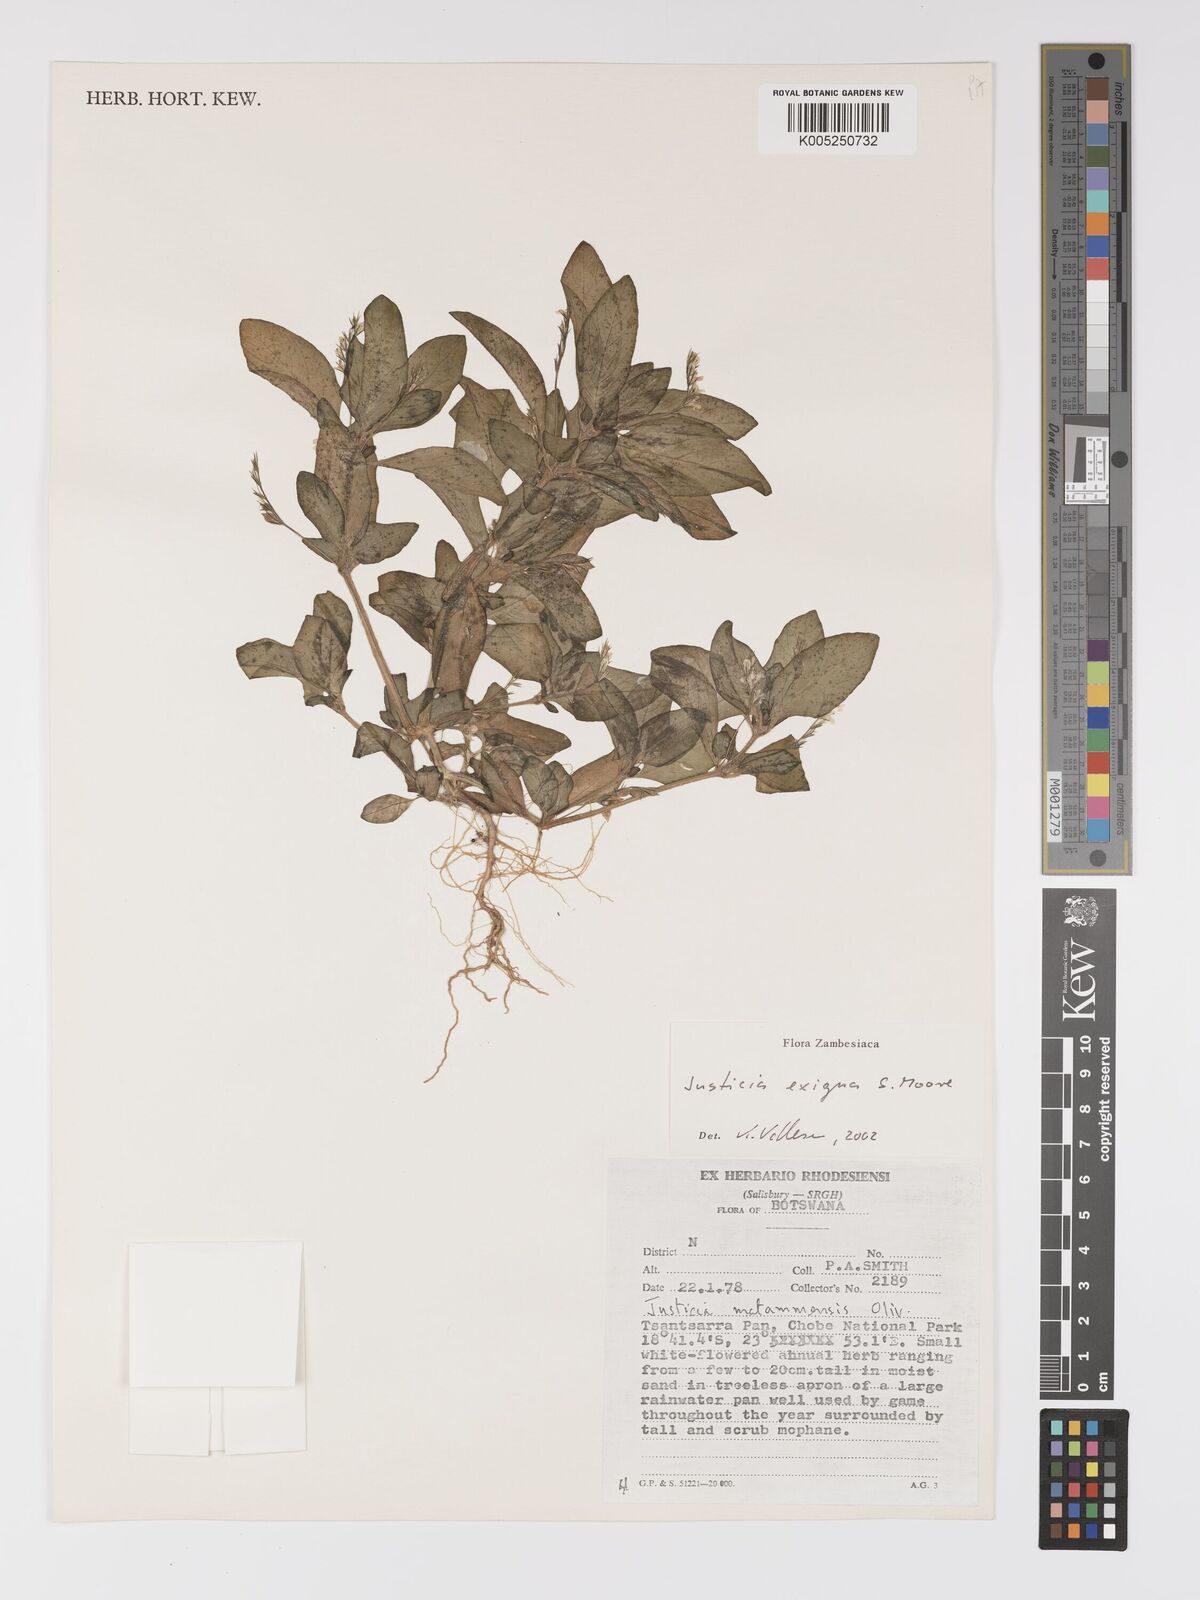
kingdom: Plantae
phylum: Tracheophyta
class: Magnoliopsida
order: Lamiales
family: Acanthaceae
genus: Justicia
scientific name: Justicia exigua
